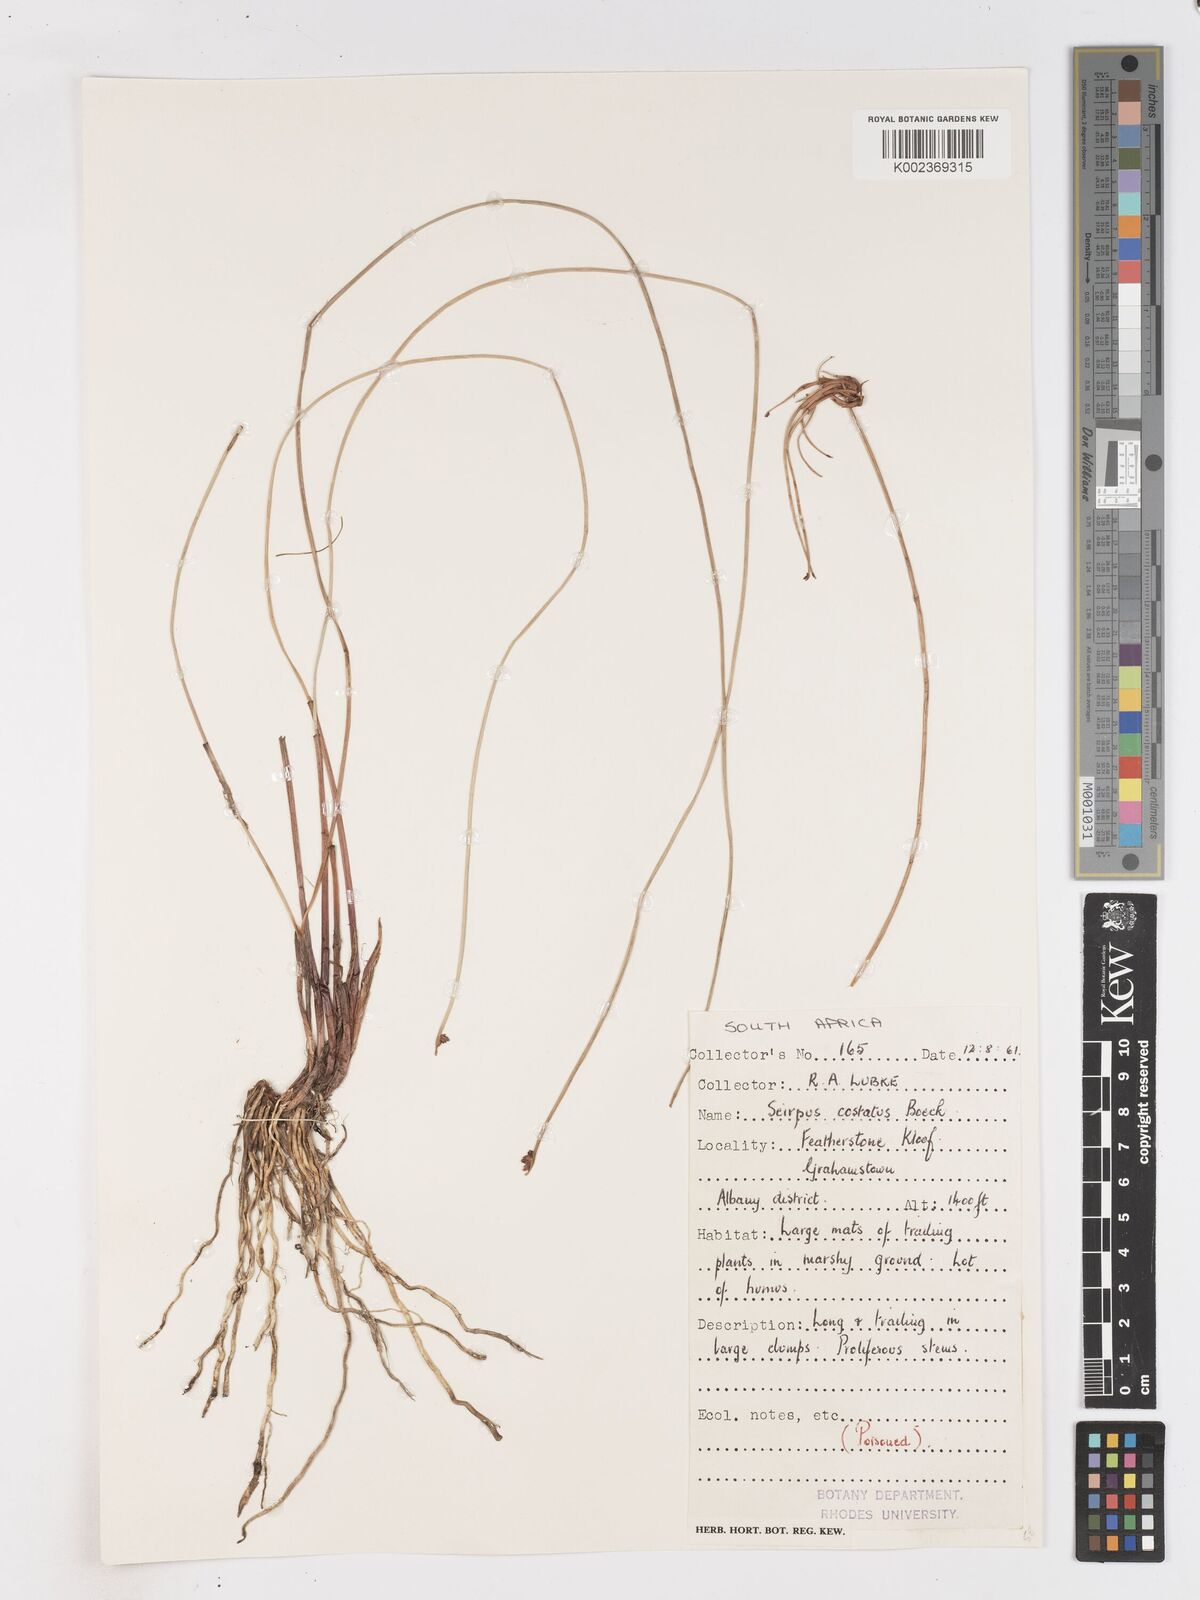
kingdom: Plantae
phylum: Tracheophyta
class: Liliopsida
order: Poales
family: Cyperaceae
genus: Isolepis
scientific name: Isolepis costata
